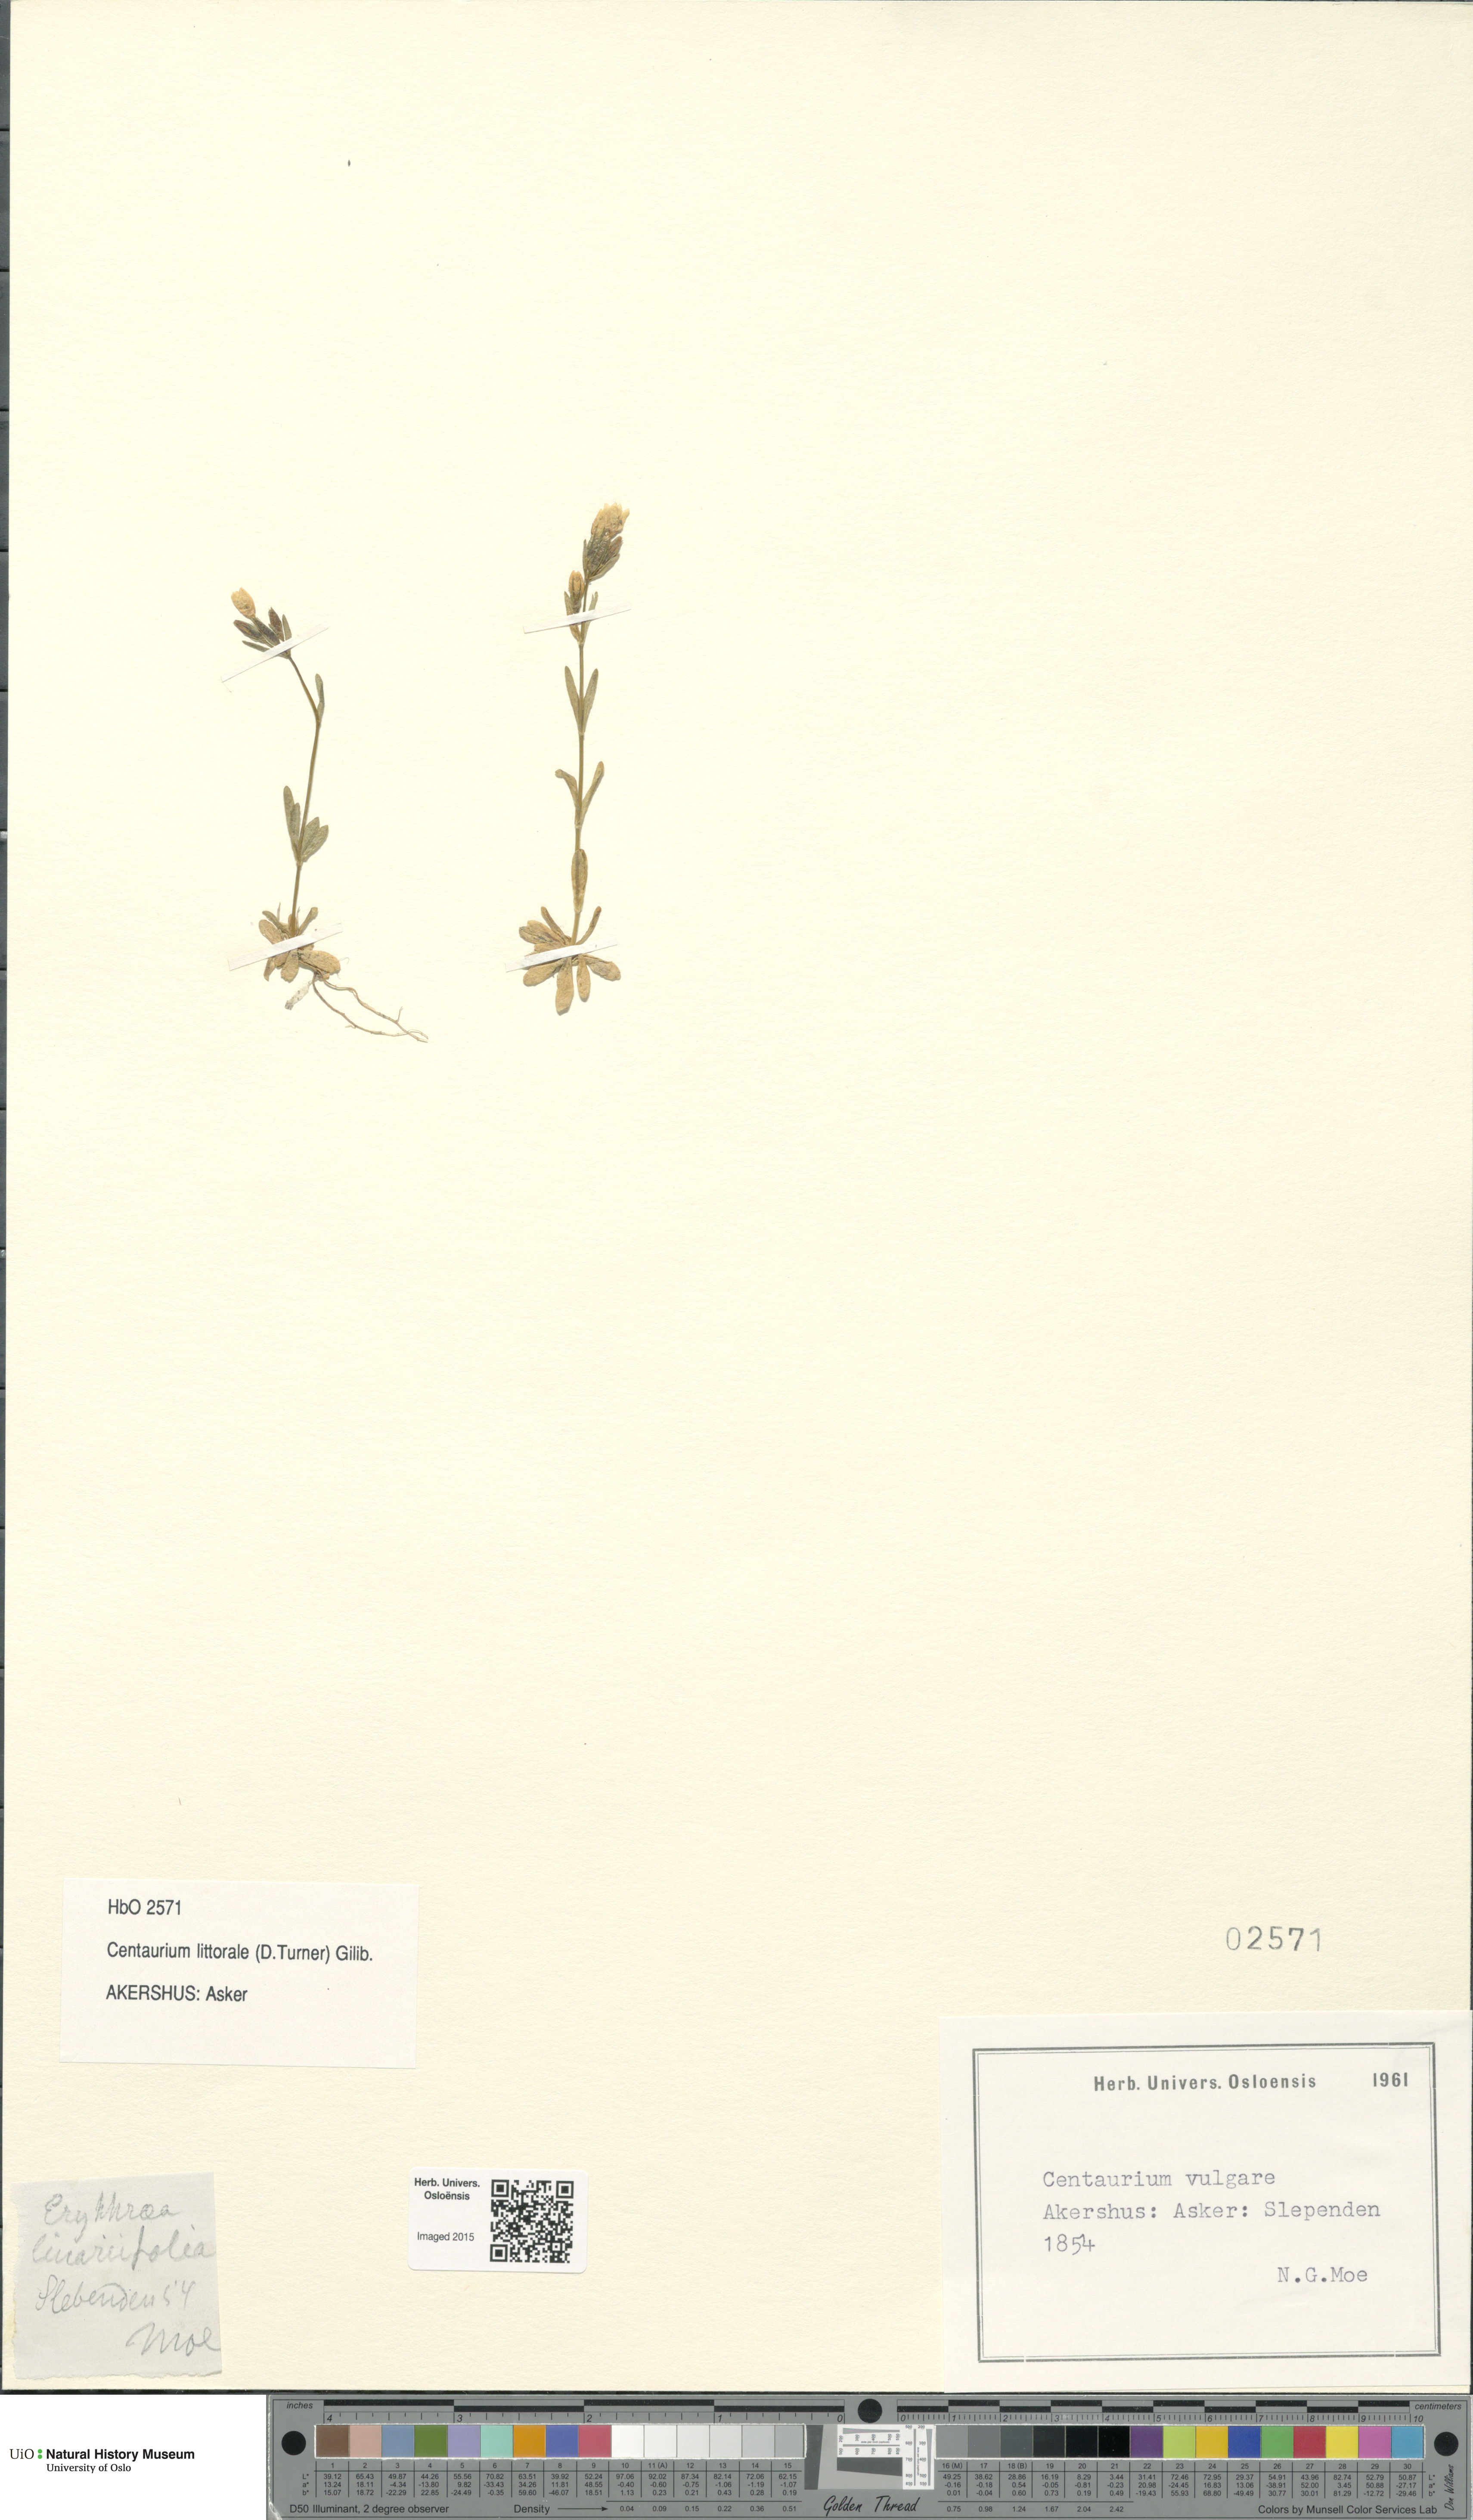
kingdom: Plantae
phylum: Tracheophyta
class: Magnoliopsida
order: Gentianales
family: Gentianaceae
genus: Centaurium
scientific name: Centaurium littorale
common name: Seaside centaury
